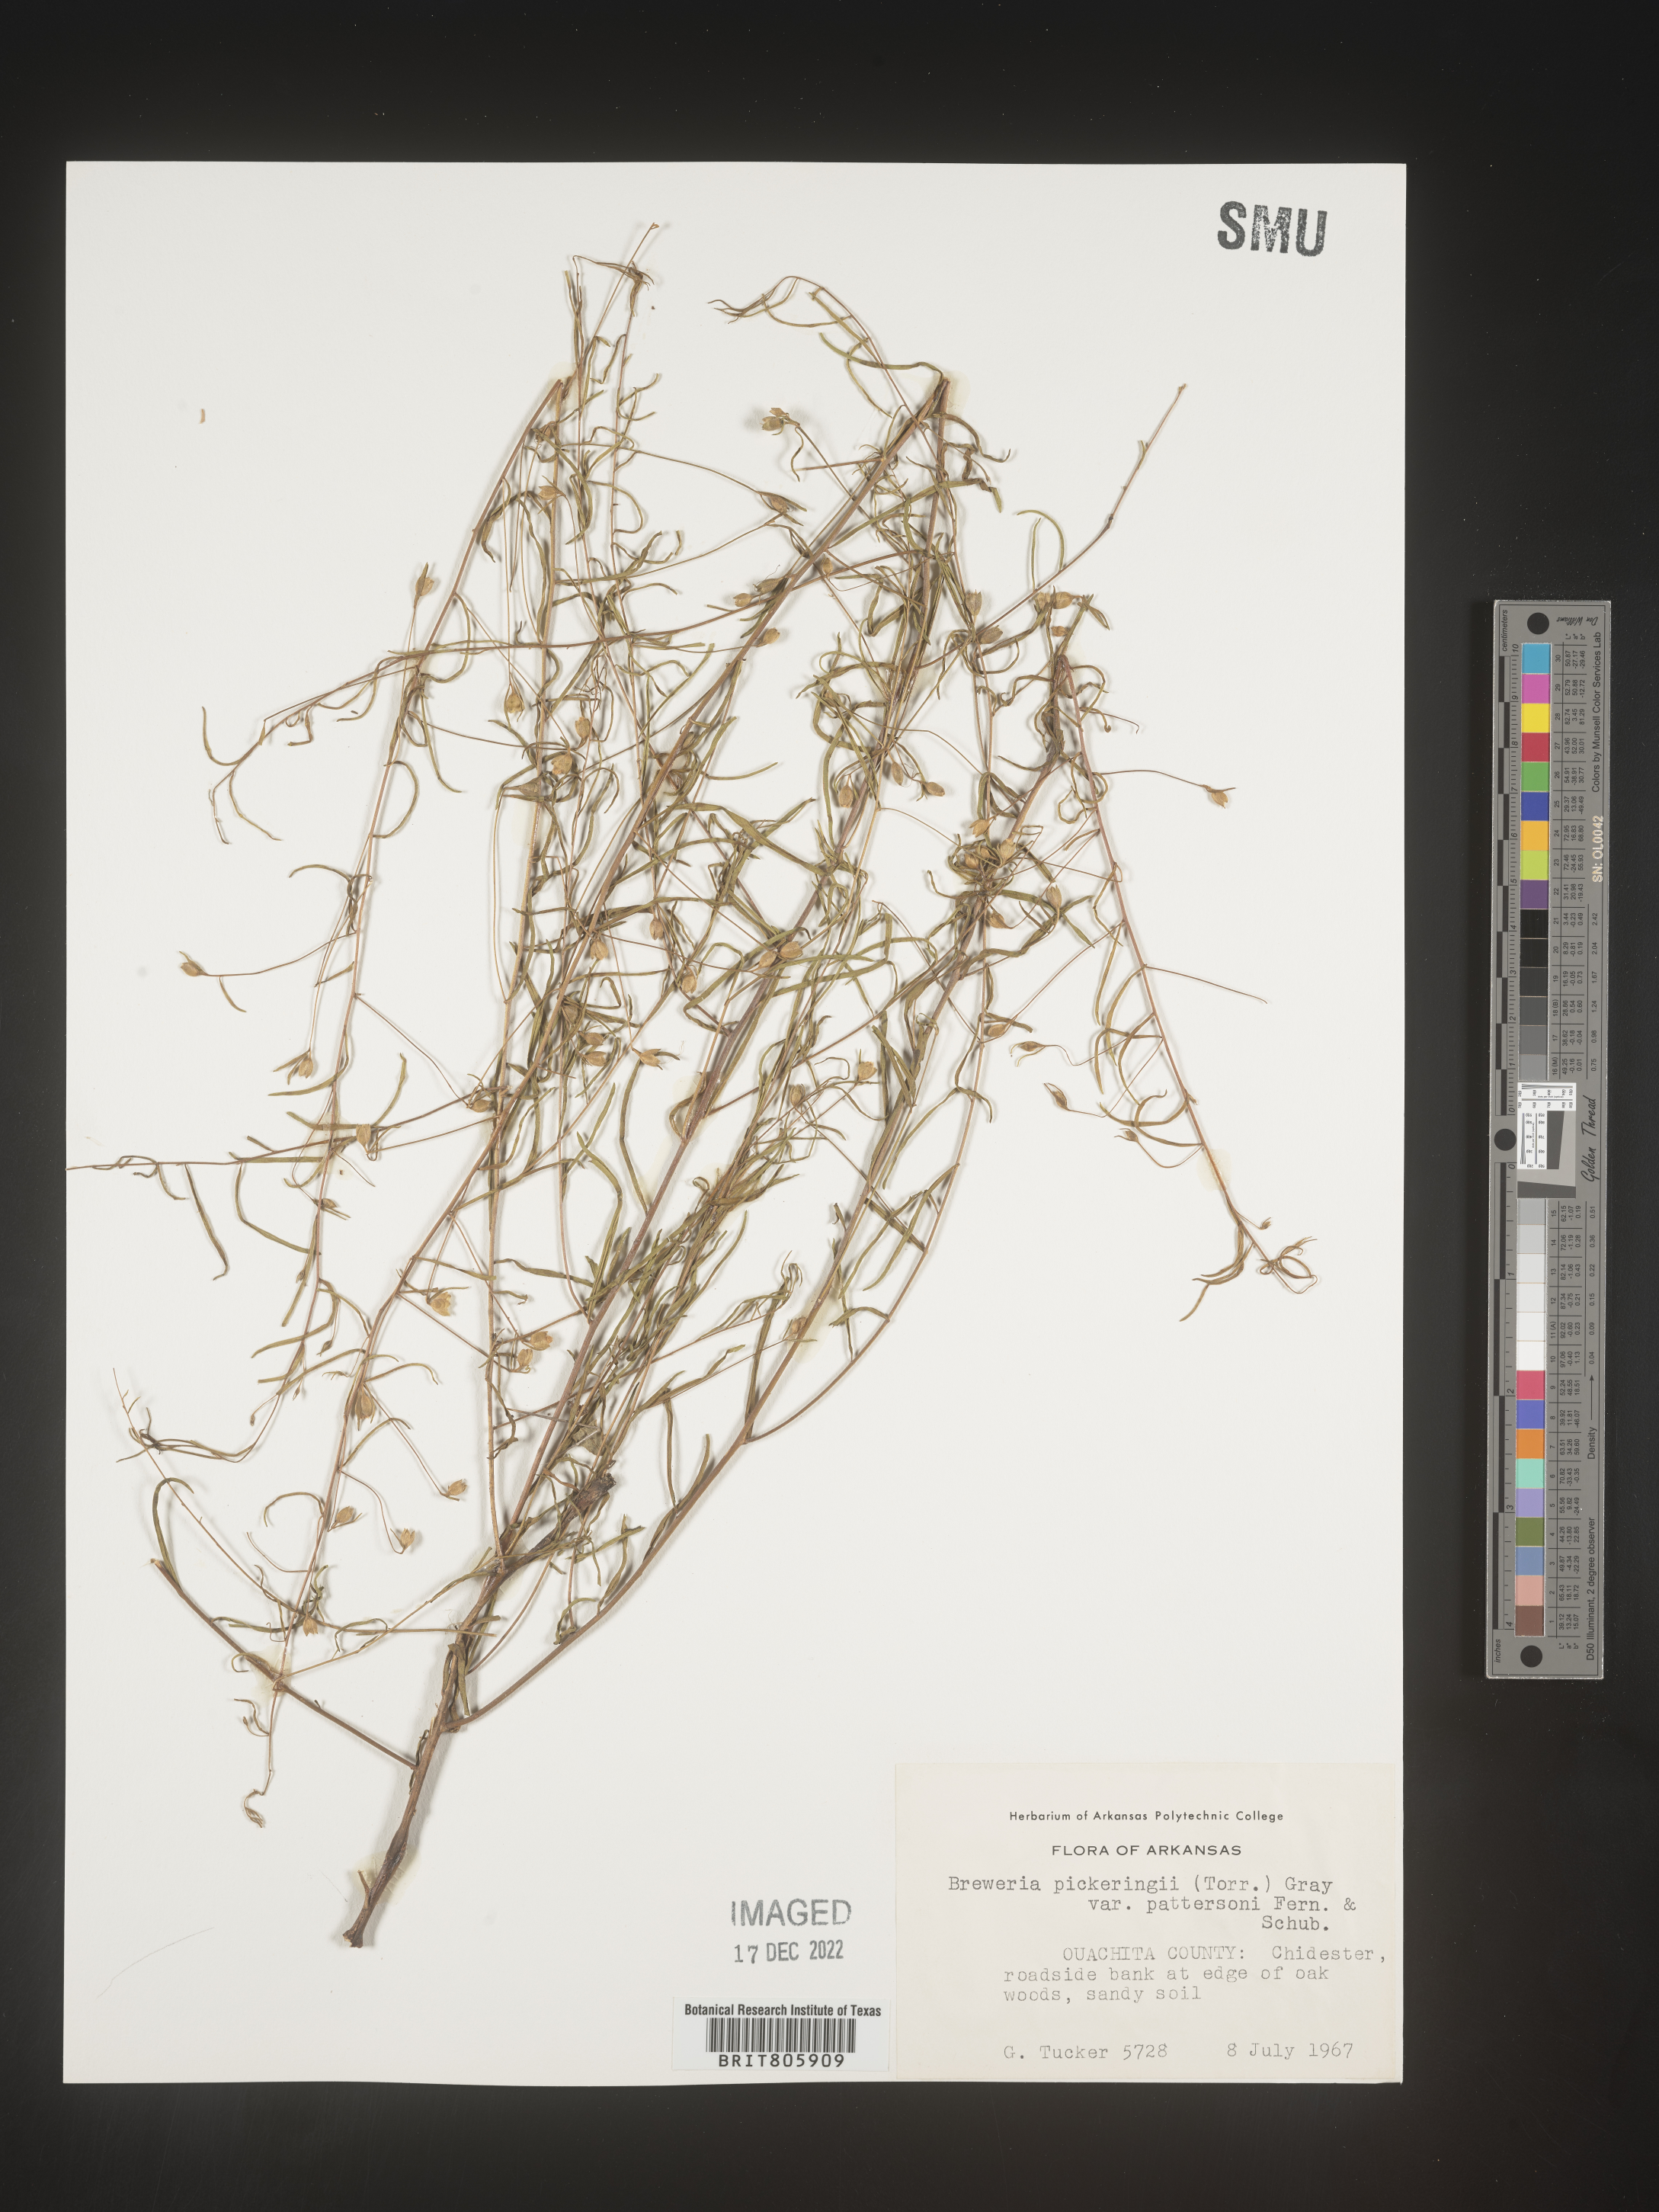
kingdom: Plantae
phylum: Tracheophyta
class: Magnoliopsida
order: Solanales
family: Convolvulaceae
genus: Stylisma
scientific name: Stylisma
